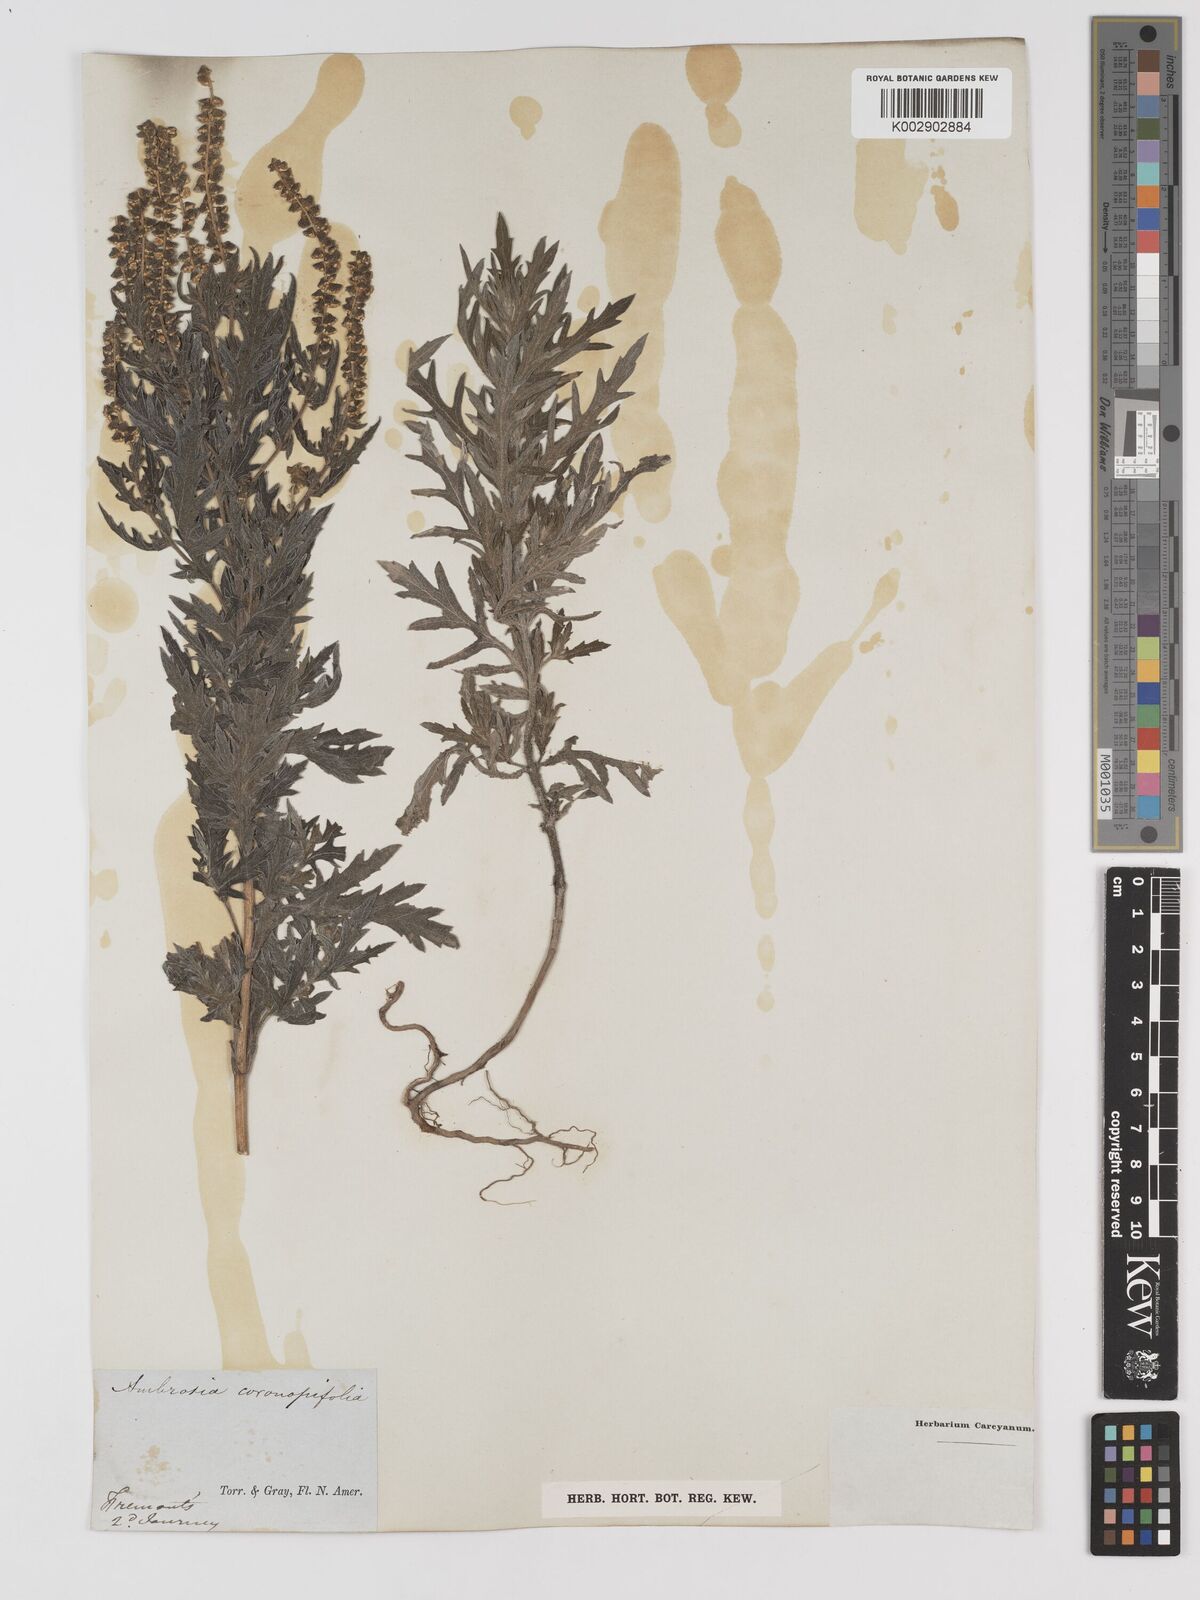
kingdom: Plantae
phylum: Tracheophyta
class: Magnoliopsida
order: Asterales
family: Asteraceae
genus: Ambrosia
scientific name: Ambrosia psilostachya
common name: Perennial ragweed
